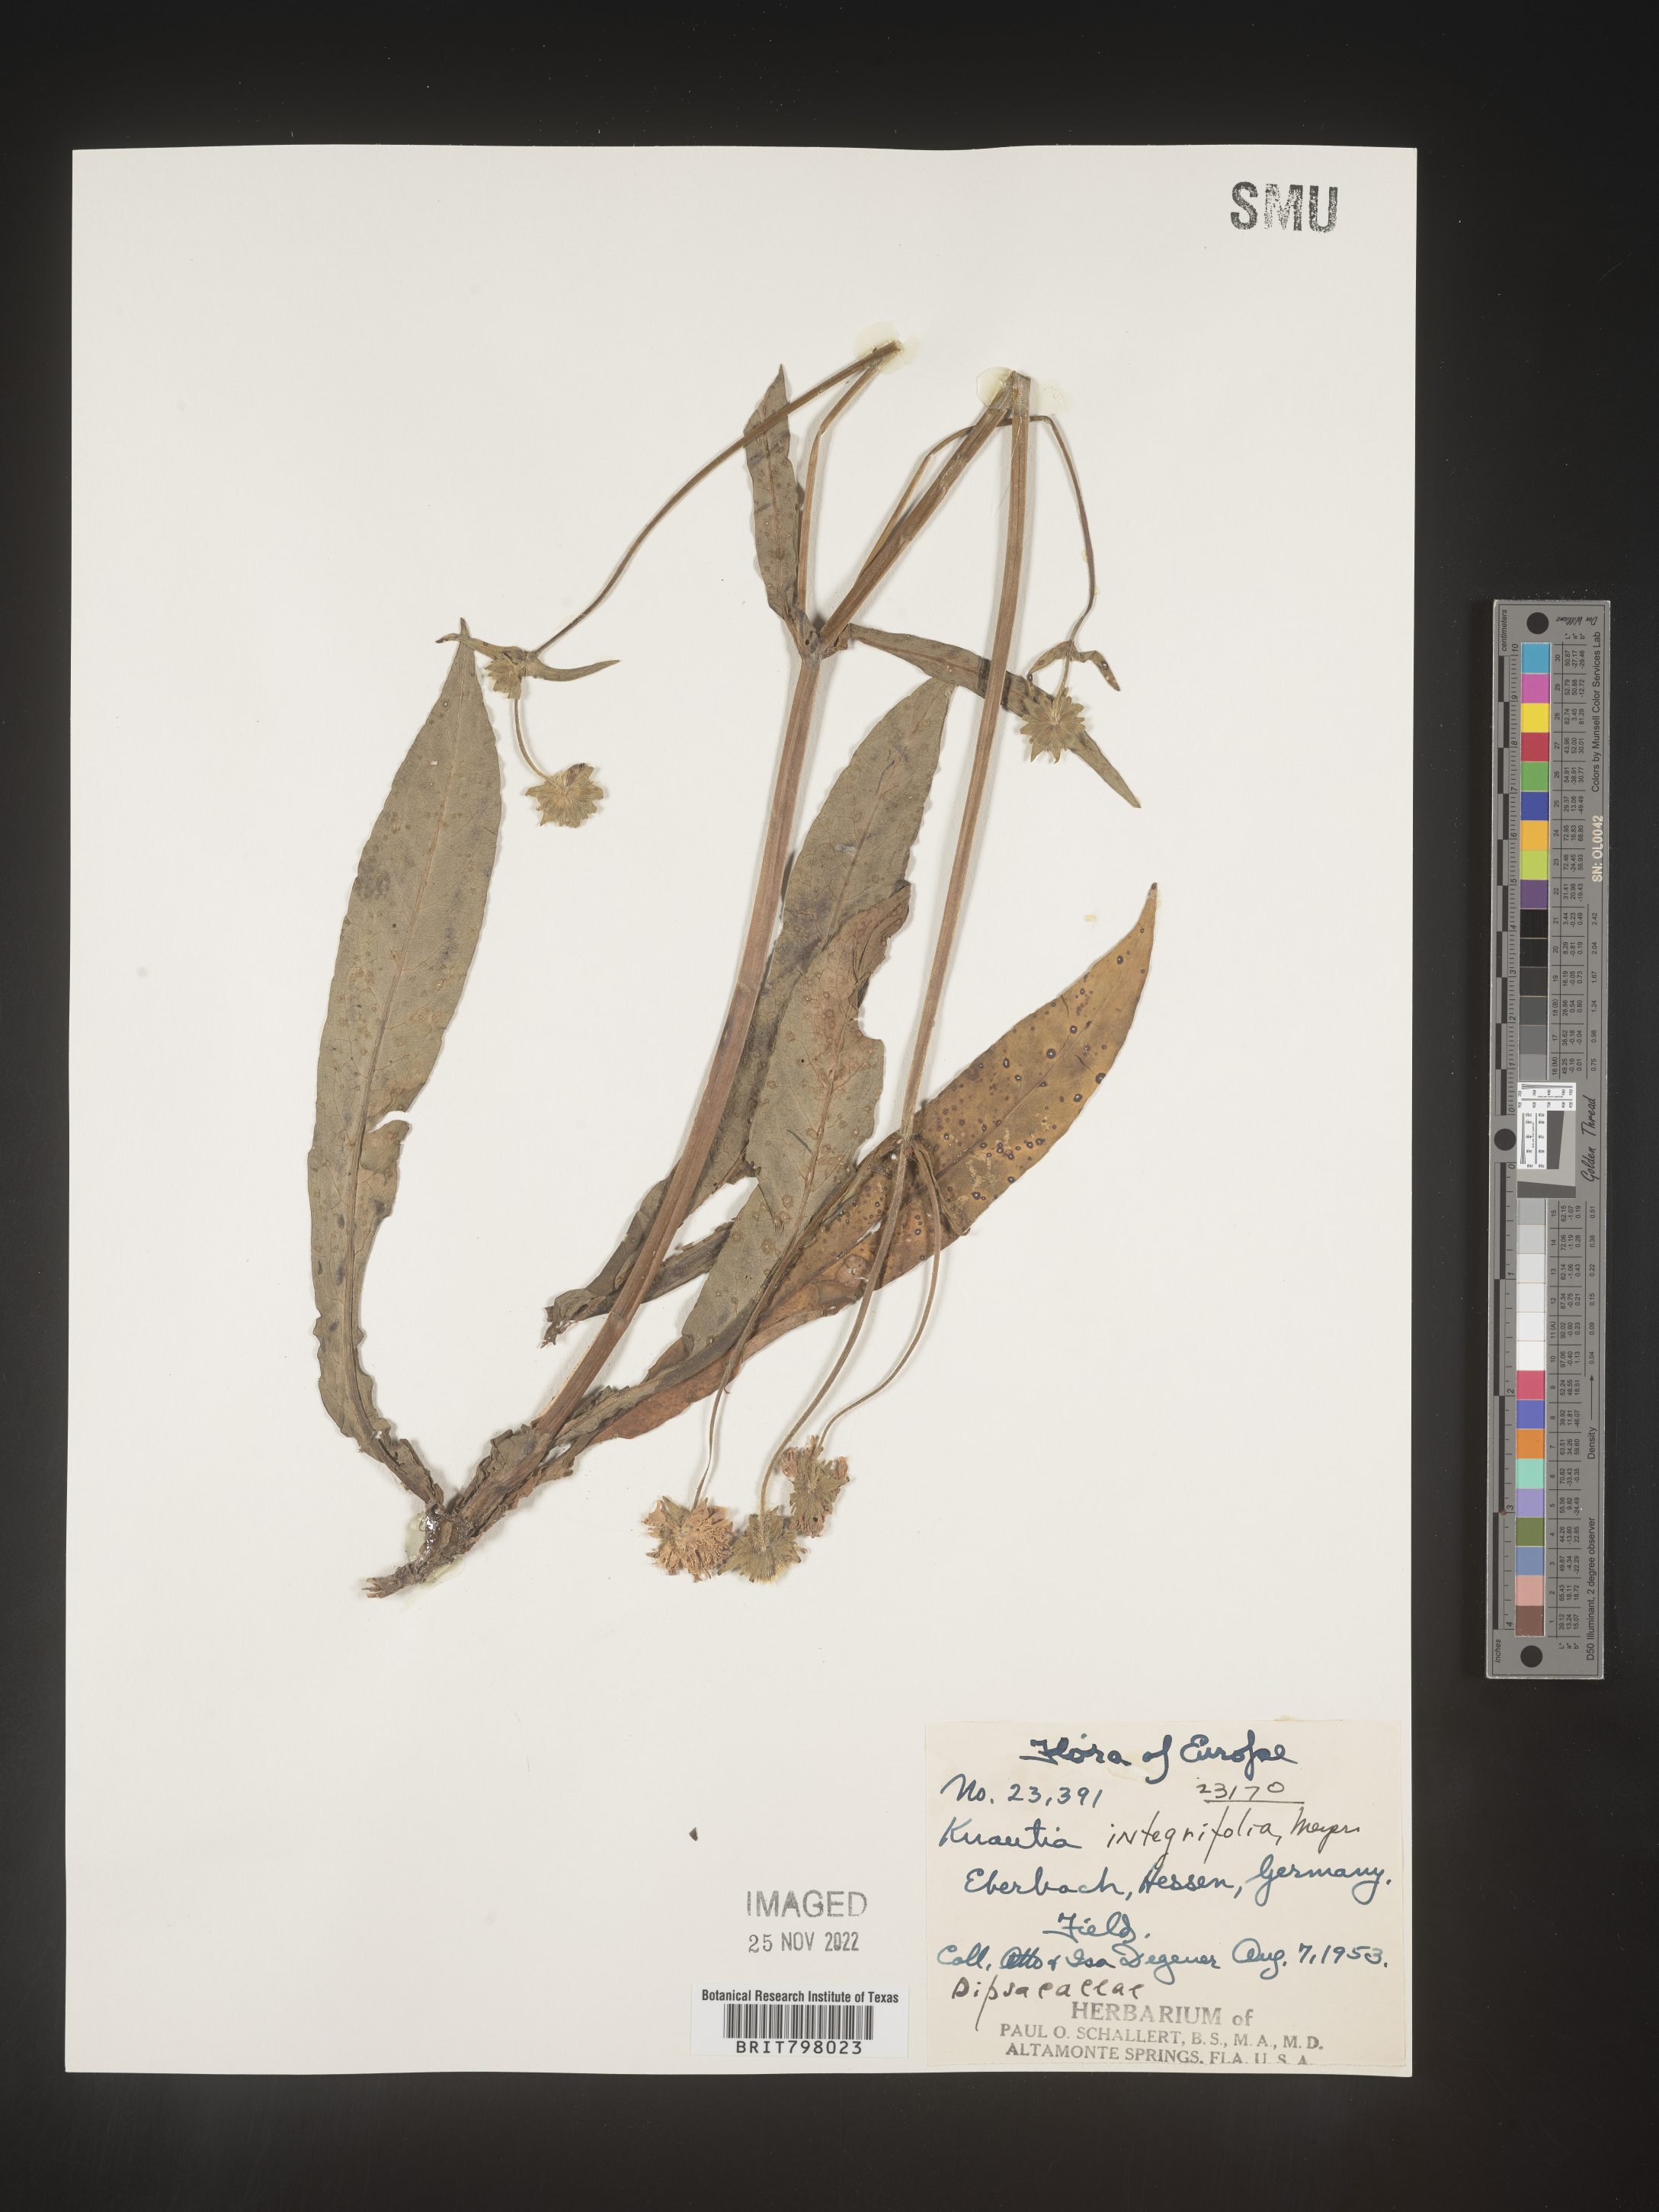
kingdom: Plantae
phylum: Tracheophyta
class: Magnoliopsida
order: Dipsacales
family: Caprifoliaceae
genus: Knautia
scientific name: Knautia
